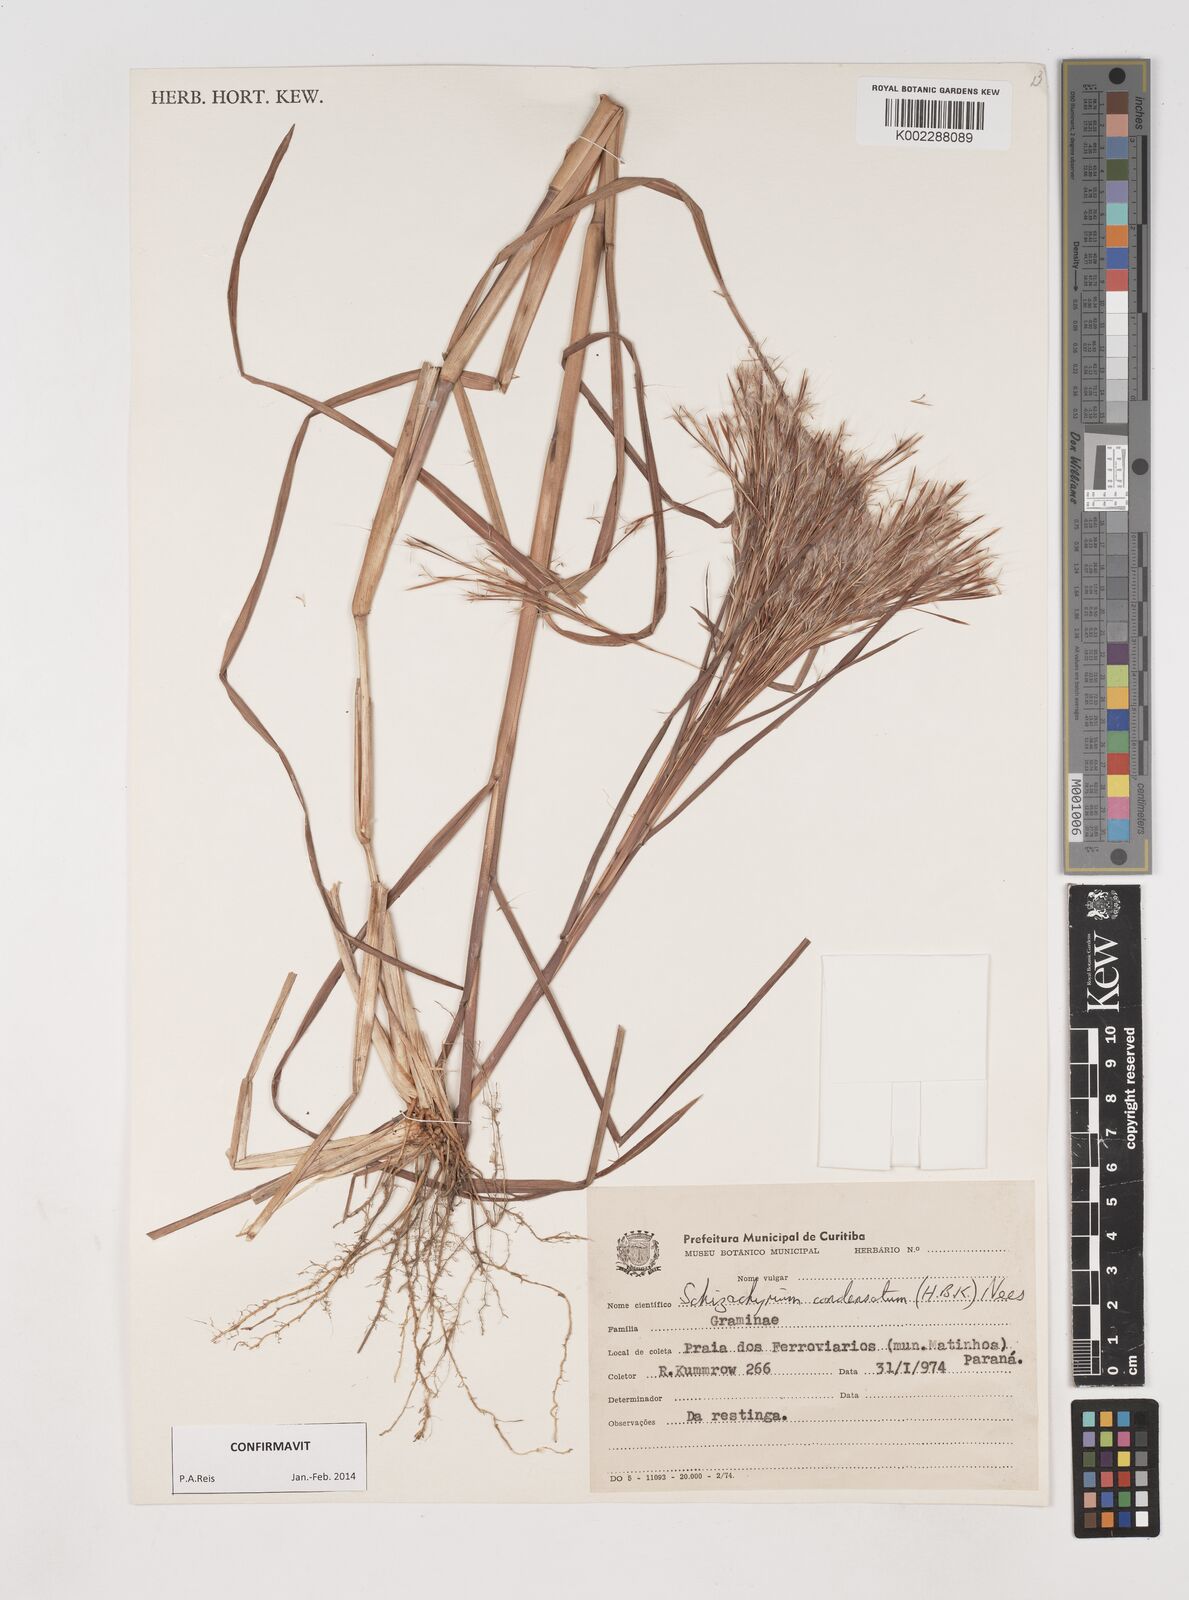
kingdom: Plantae
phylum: Tracheophyta
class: Liliopsida
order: Poales
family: Poaceae
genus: Schizachyrium
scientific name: Schizachyrium condensatum
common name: Bush beardgrass
